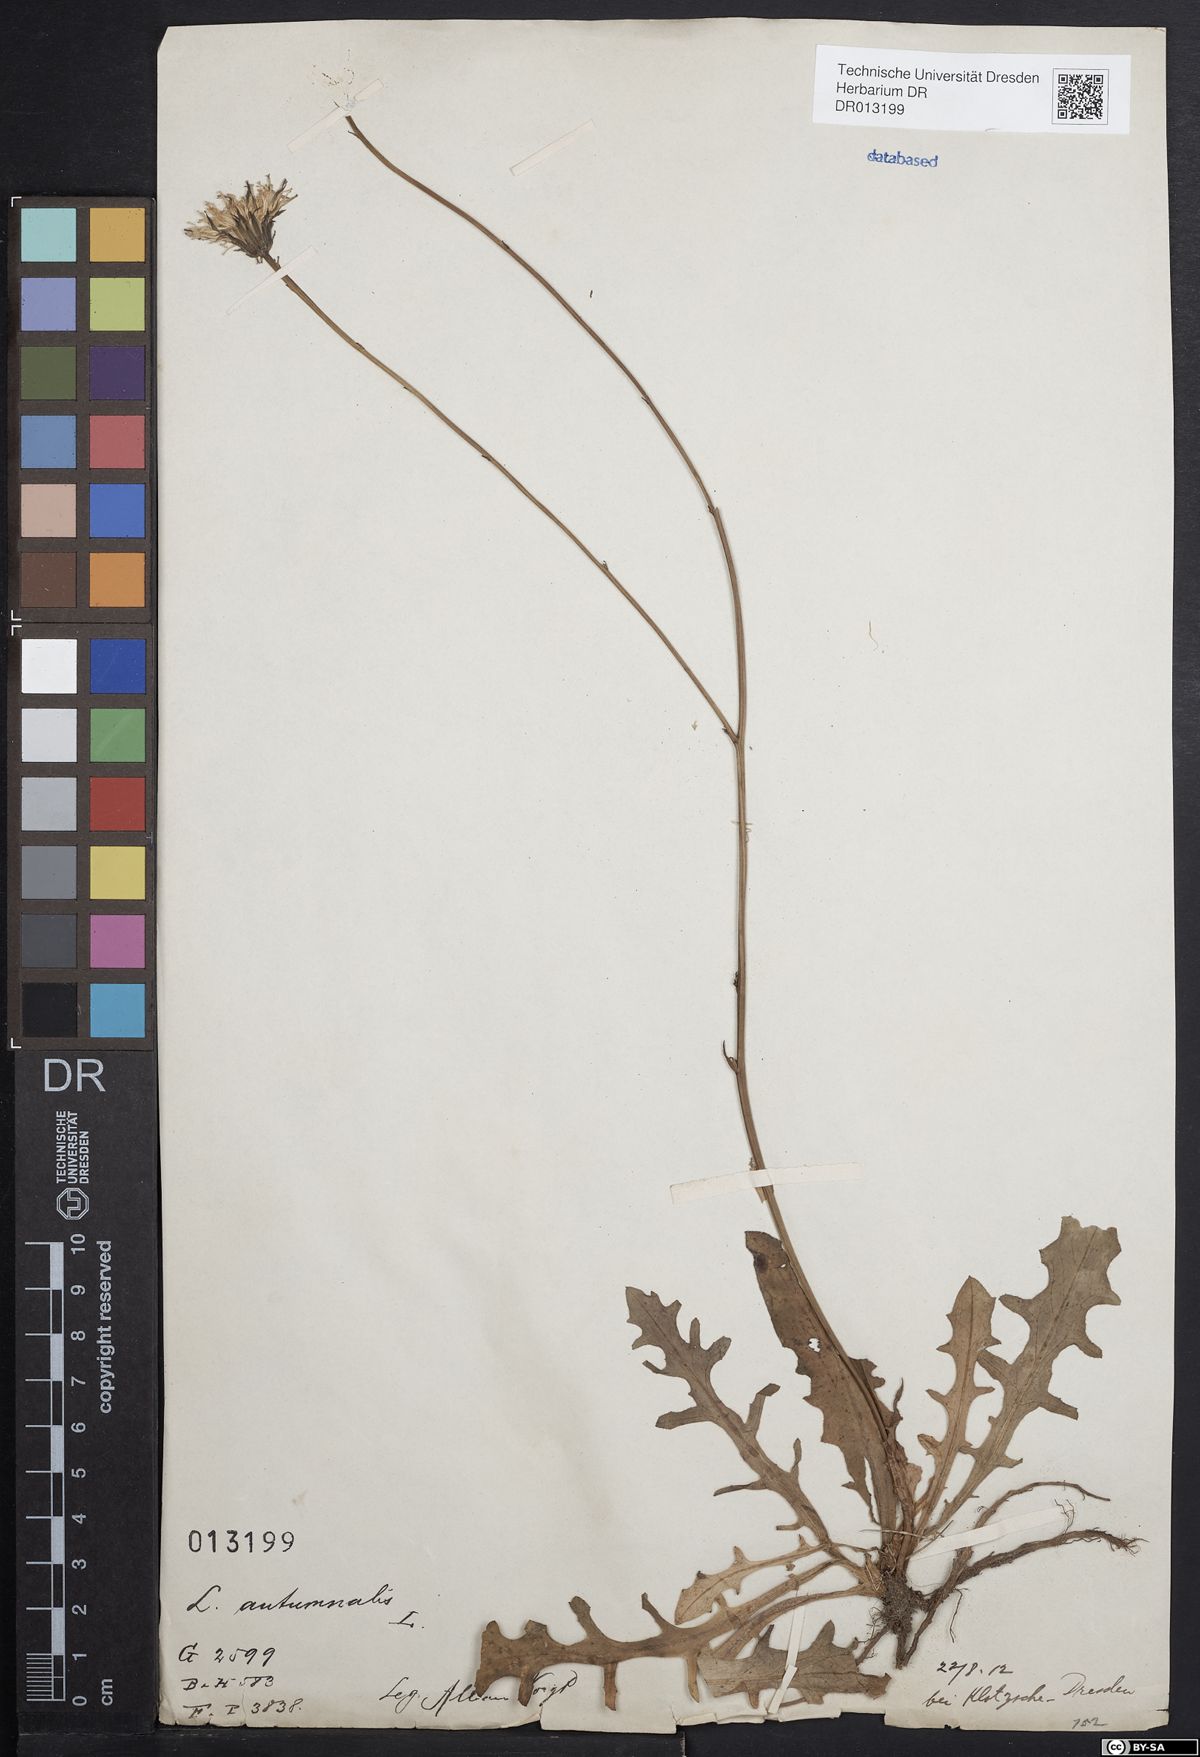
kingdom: Plantae
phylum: Tracheophyta
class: Magnoliopsida
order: Asterales
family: Asteraceae
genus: Scorzoneroides
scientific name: Scorzoneroides autumnalis
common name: Autumn hawkbit
